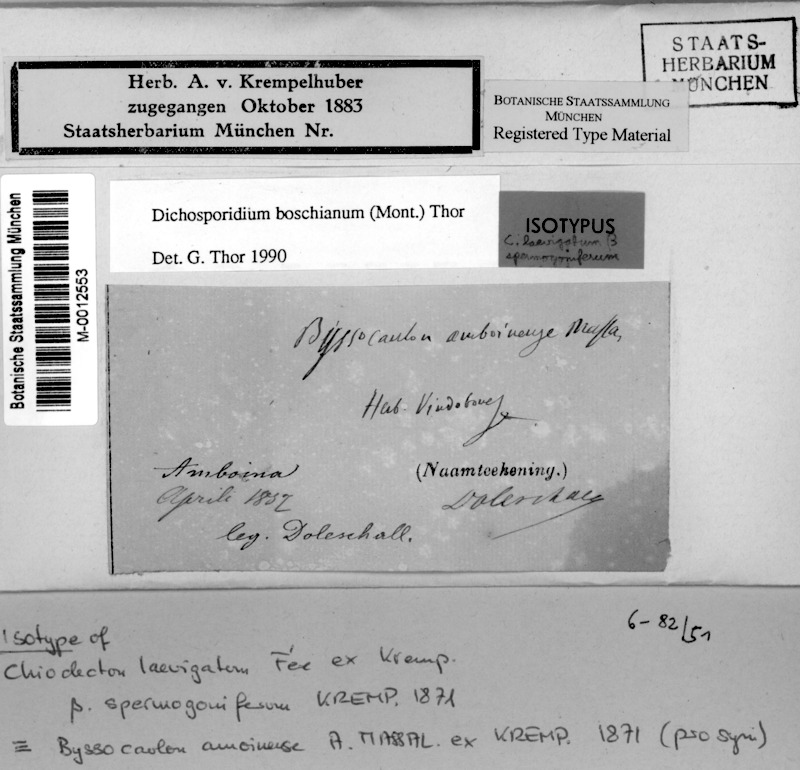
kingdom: Fungi
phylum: Ascomycota
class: Arthoniomycetes
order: Arthoniales
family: Roccellaceae
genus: Dichosporidium
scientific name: Dichosporidium boschianum
